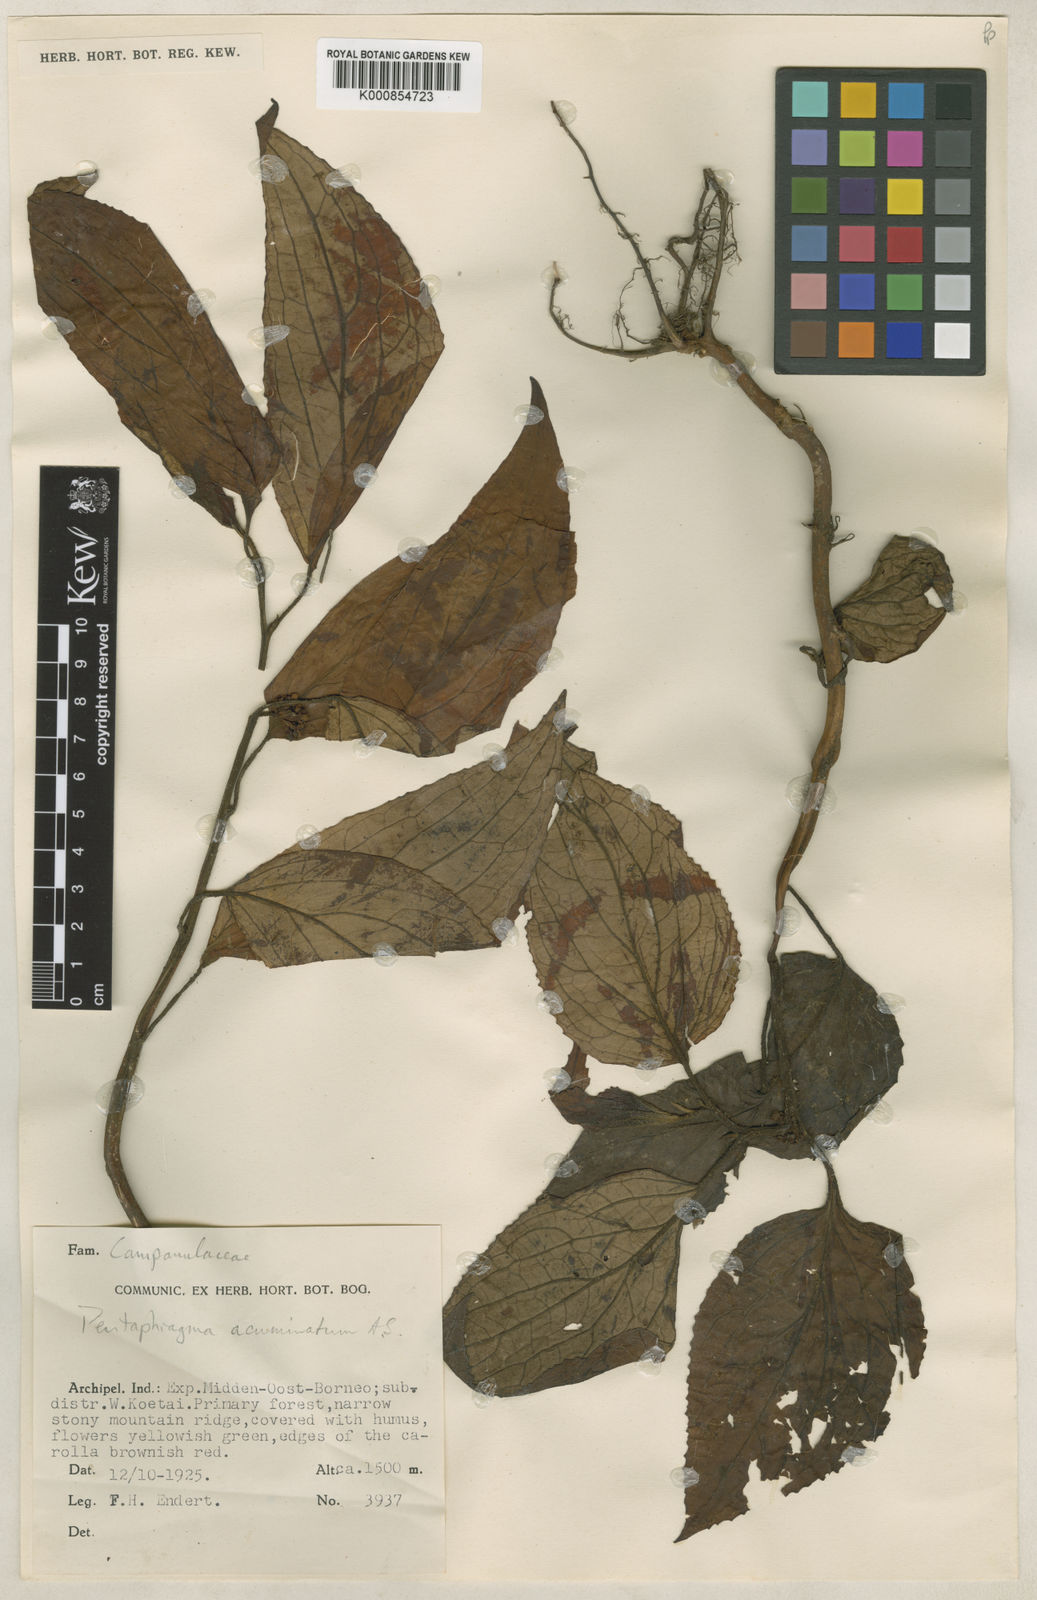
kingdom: Plantae
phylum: Tracheophyta
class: Magnoliopsida
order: Asterales
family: Pentaphragmataceae
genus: Pentaphragma
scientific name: Pentaphragma acuminatum
